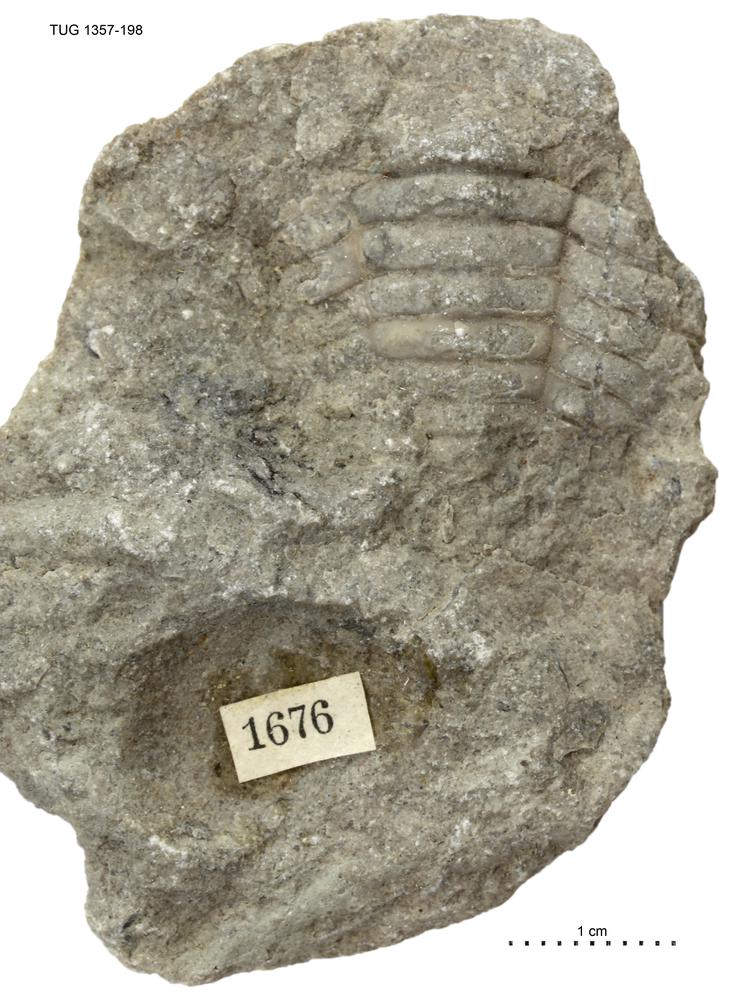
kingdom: Animalia
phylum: Arthropoda
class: Trilobita
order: Phacopida
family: Pterygometopidae
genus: Toxochasmops
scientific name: Toxochasmops
